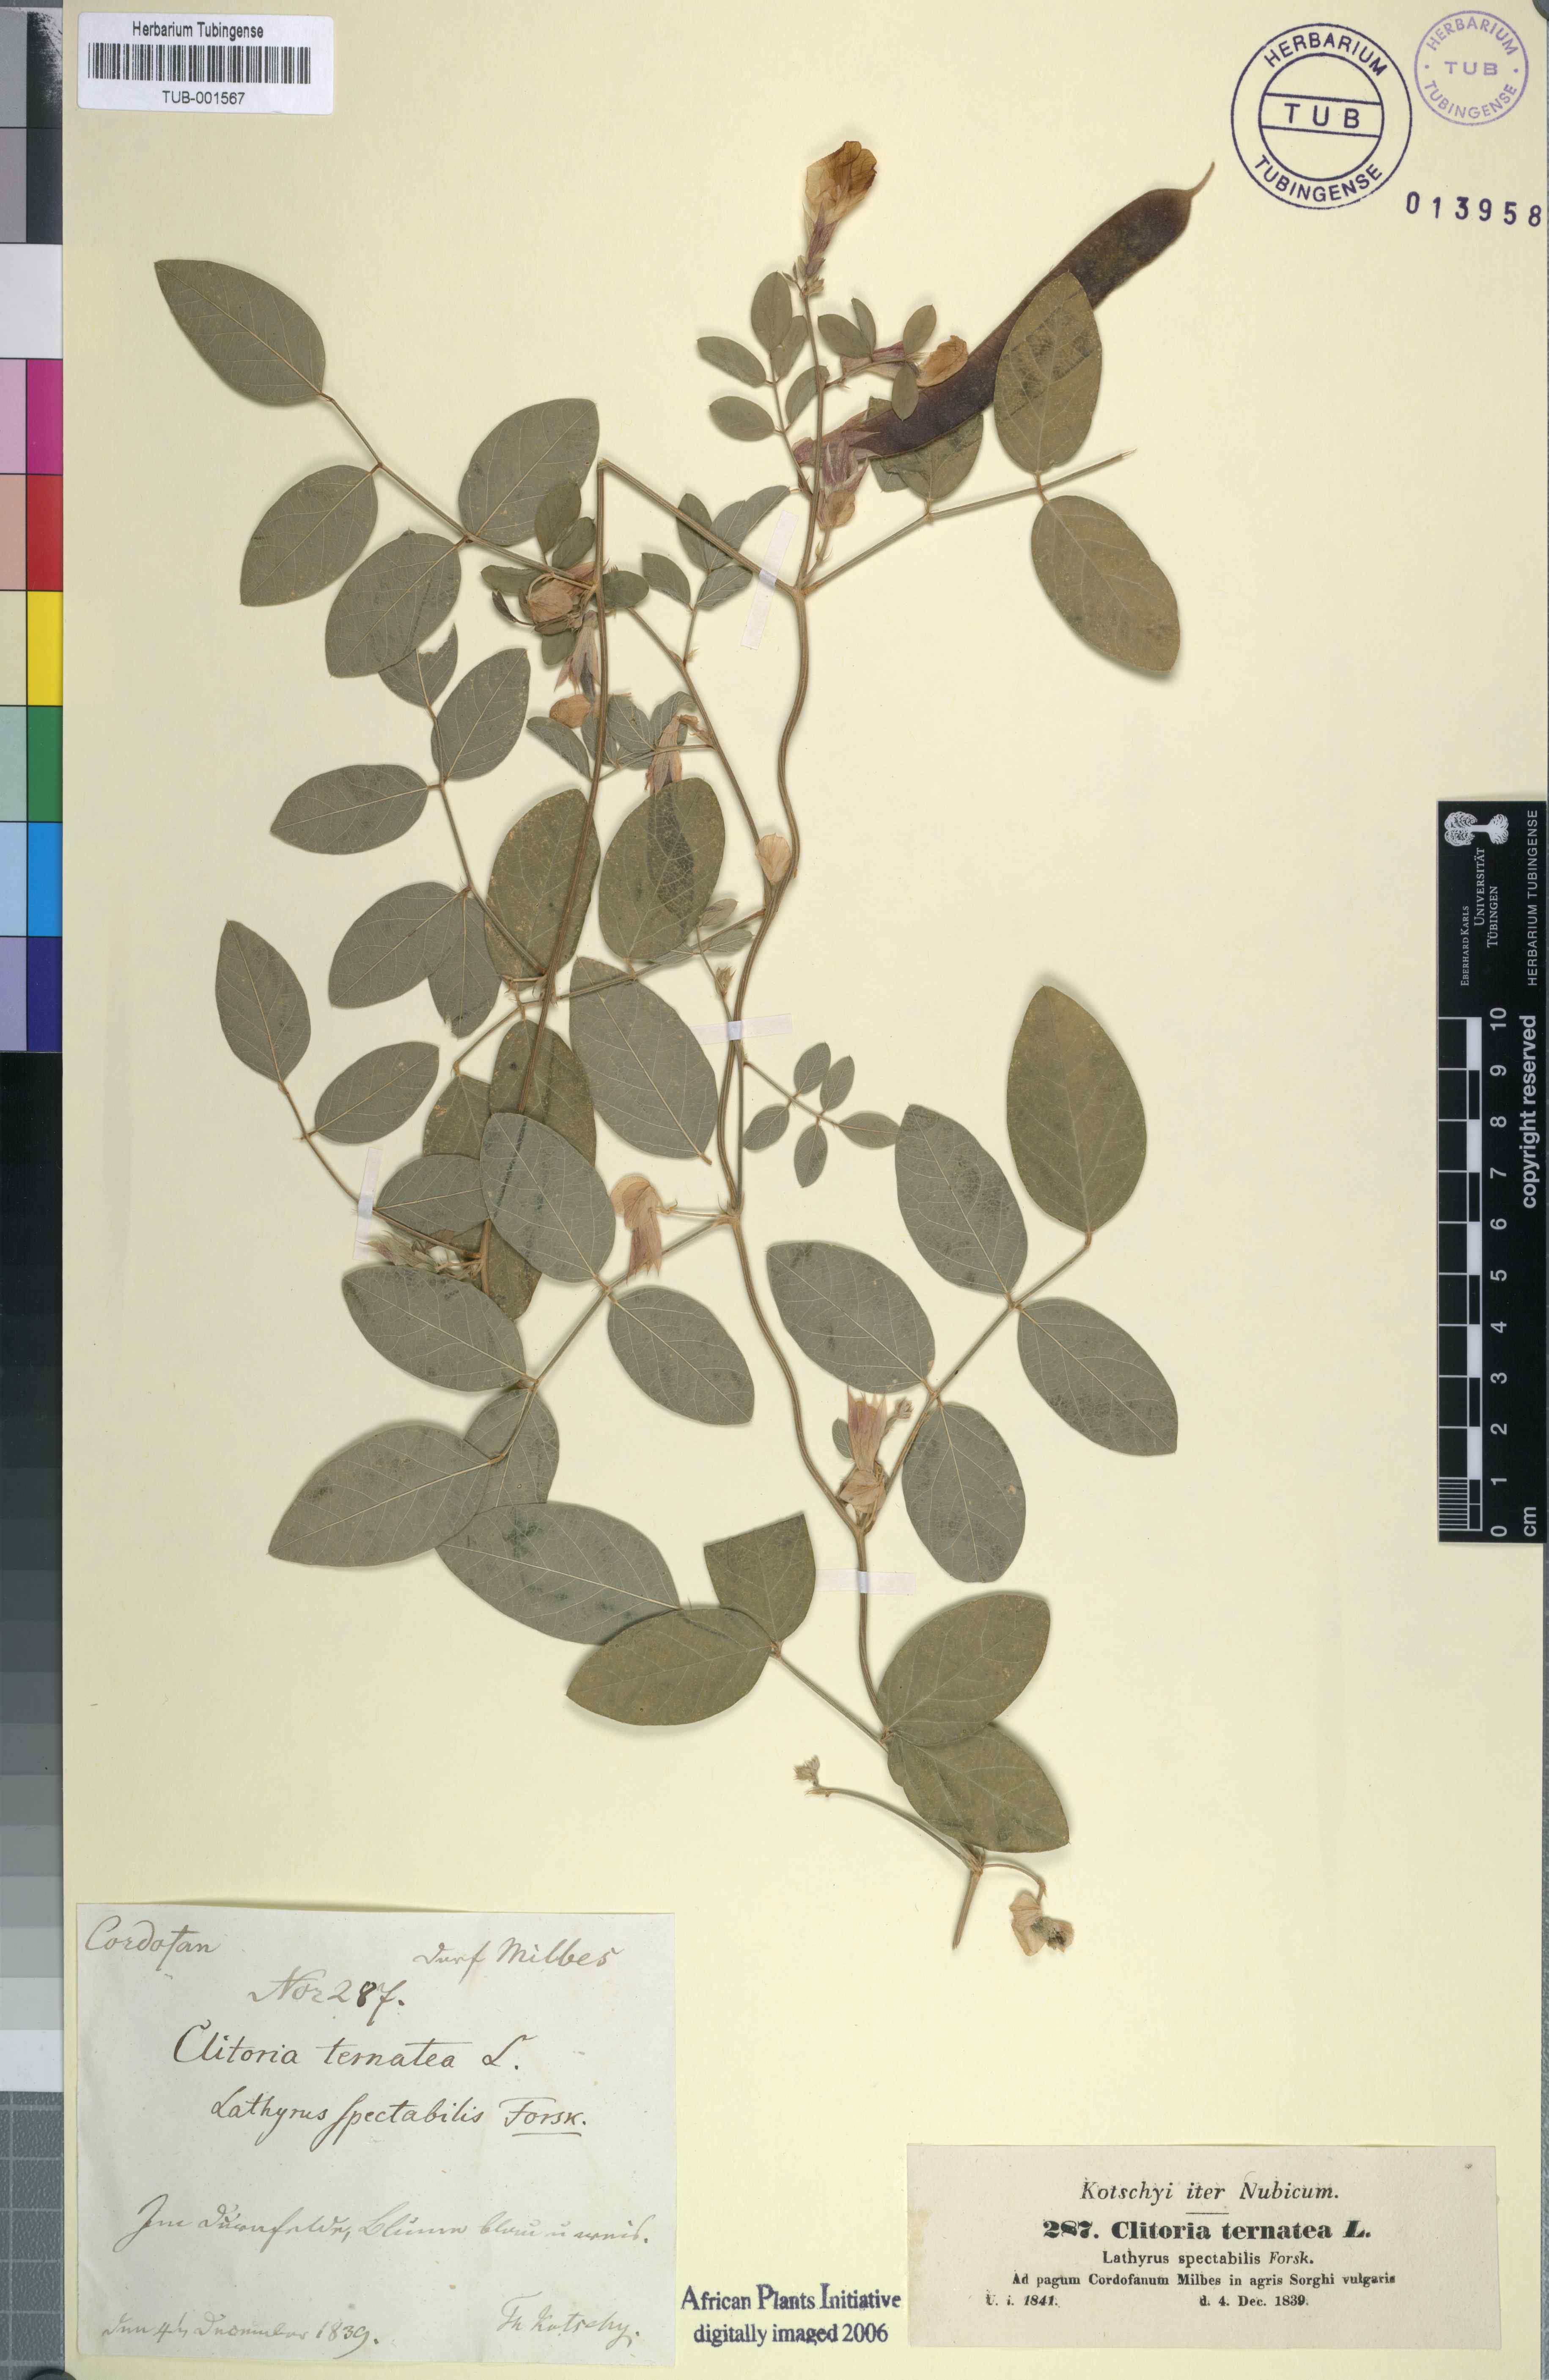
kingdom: Plantae
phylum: Tracheophyta
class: Magnoliopsida
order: Fabales
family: Fabaceae
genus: Clitoria
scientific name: Clitoria ternatea
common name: Asian pigeonwings
